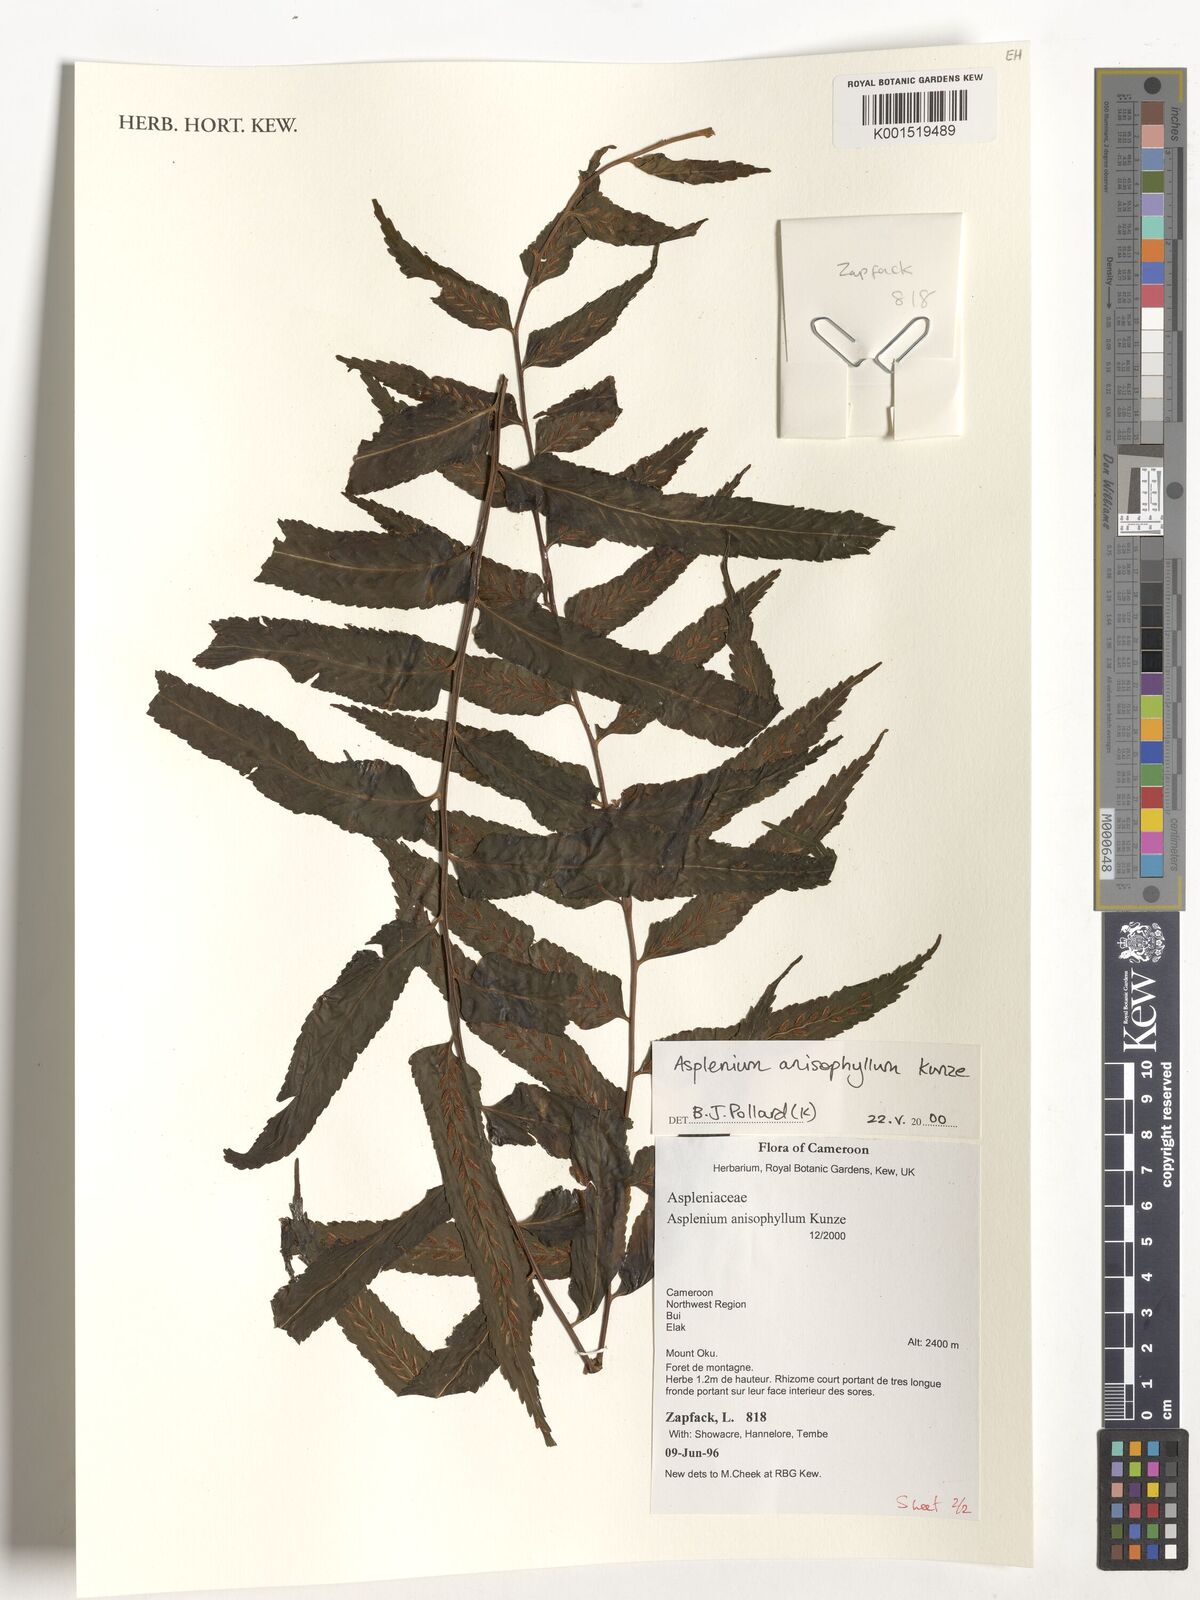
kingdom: Plantae
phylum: Tracheophyta
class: Polypodiopsida
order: Polypodiales
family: Aspleniaceae
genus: Asplenium
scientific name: Asplenium anisophyllum
